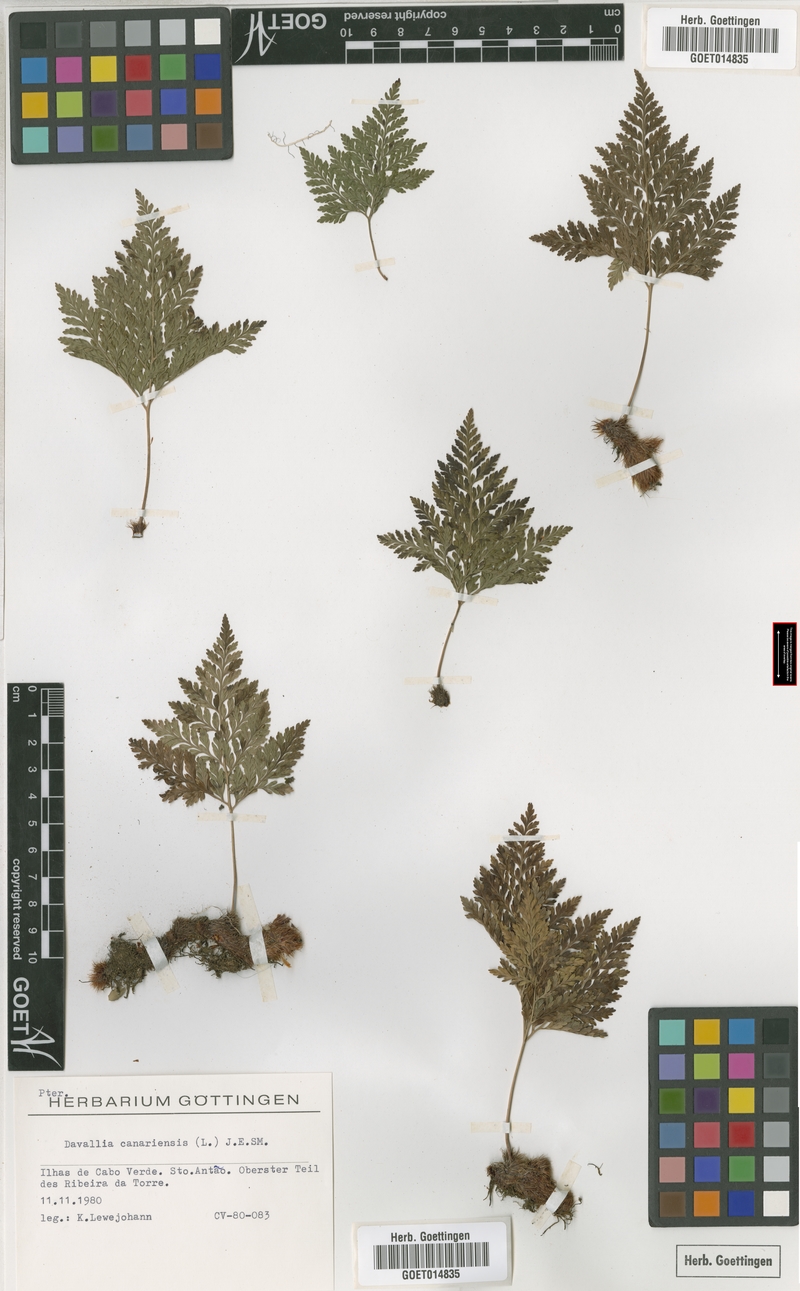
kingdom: Plantae
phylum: Tracheophyta
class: Polypodiopsida
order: Polypodiales
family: Davalliaceae
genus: Davallia
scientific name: Davallia canariensis
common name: Hare's-foot fern
